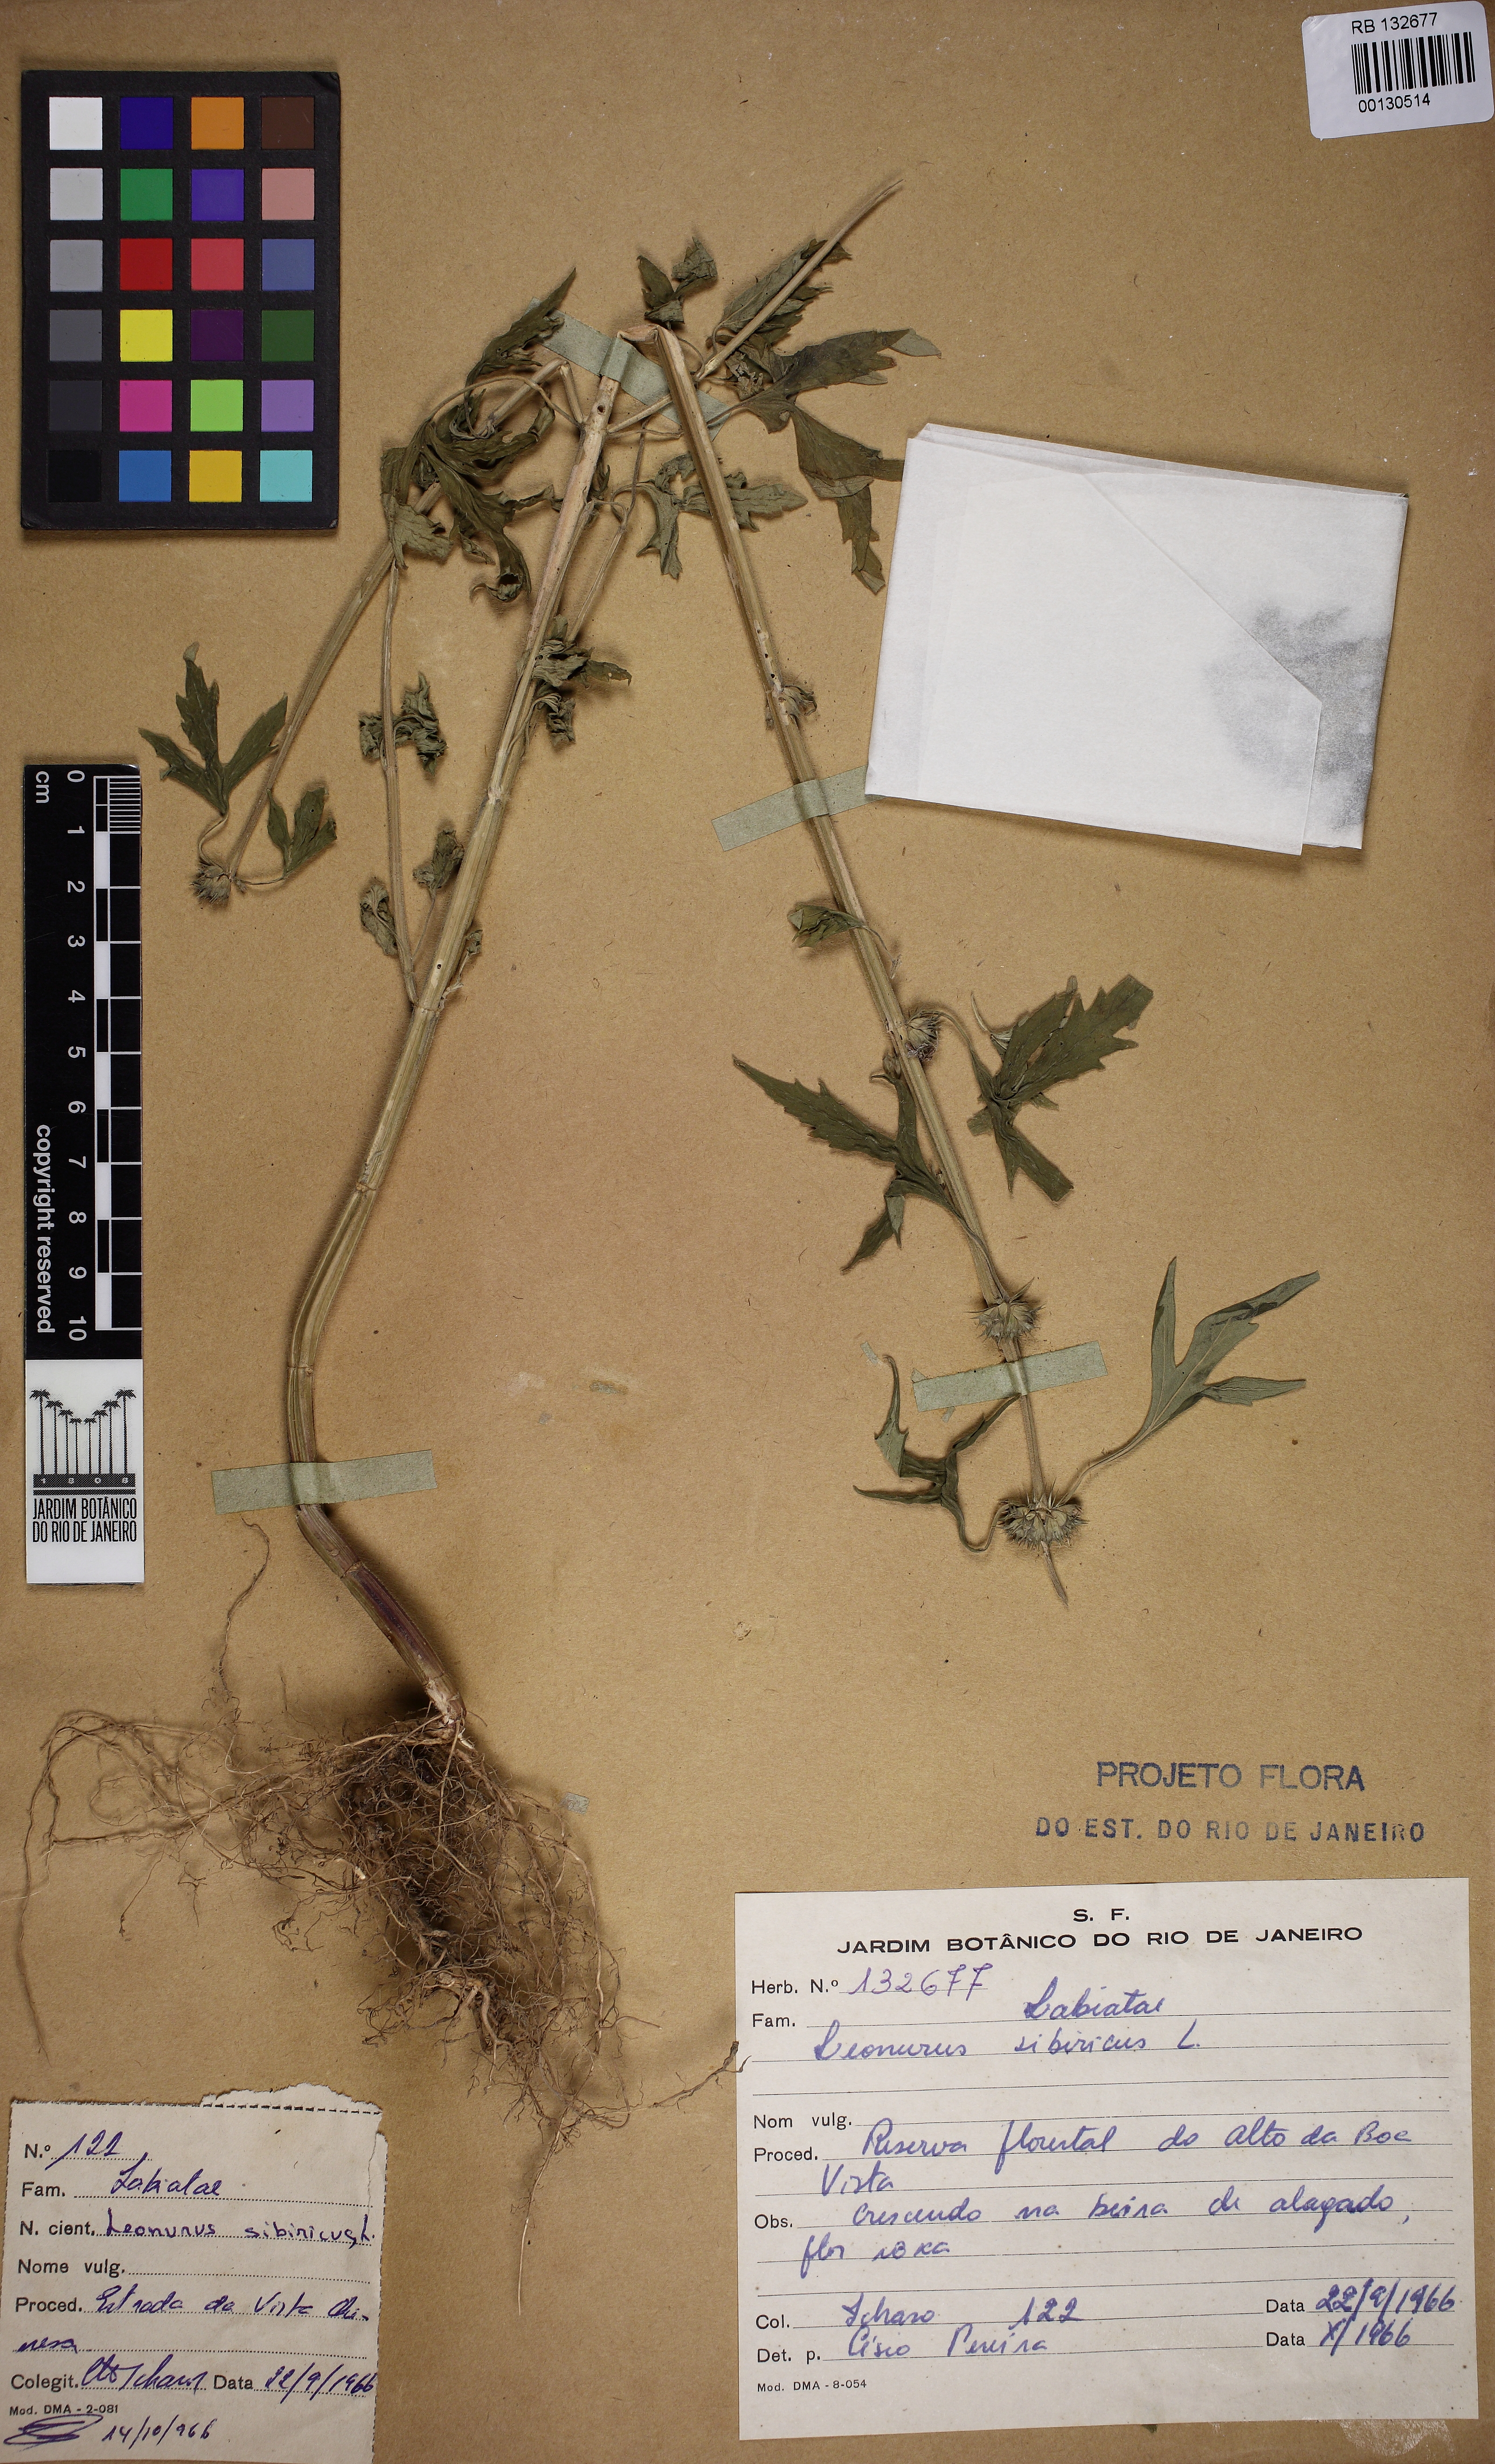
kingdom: Plantae
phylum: Tracheophyta
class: Magnoliopsida
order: Lamiales
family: Lamiaceae
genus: Leonurus
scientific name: Leonurus sibiricus
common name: Honeyweed
